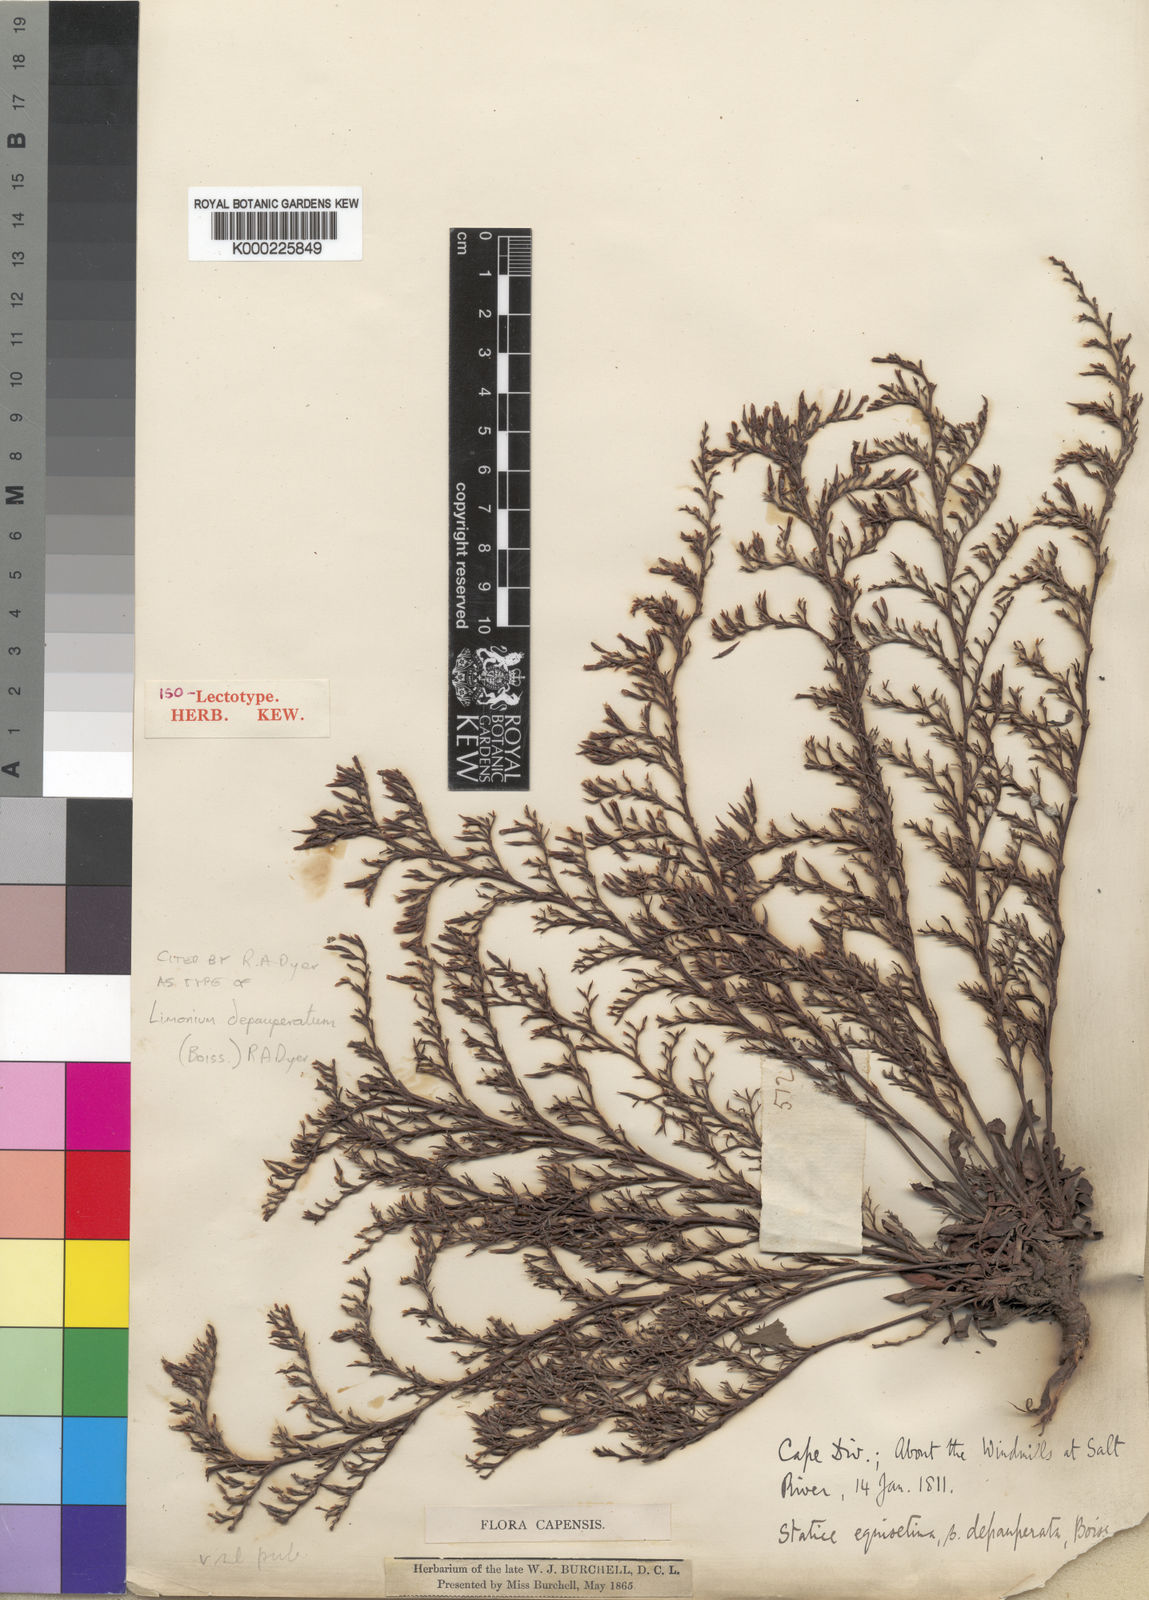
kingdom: Plantae
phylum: Tracheophyta
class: Magnoliopsida
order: Caryophyllales
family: Plumbaginaceae
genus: Limonium
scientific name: Limonium depauperatum
